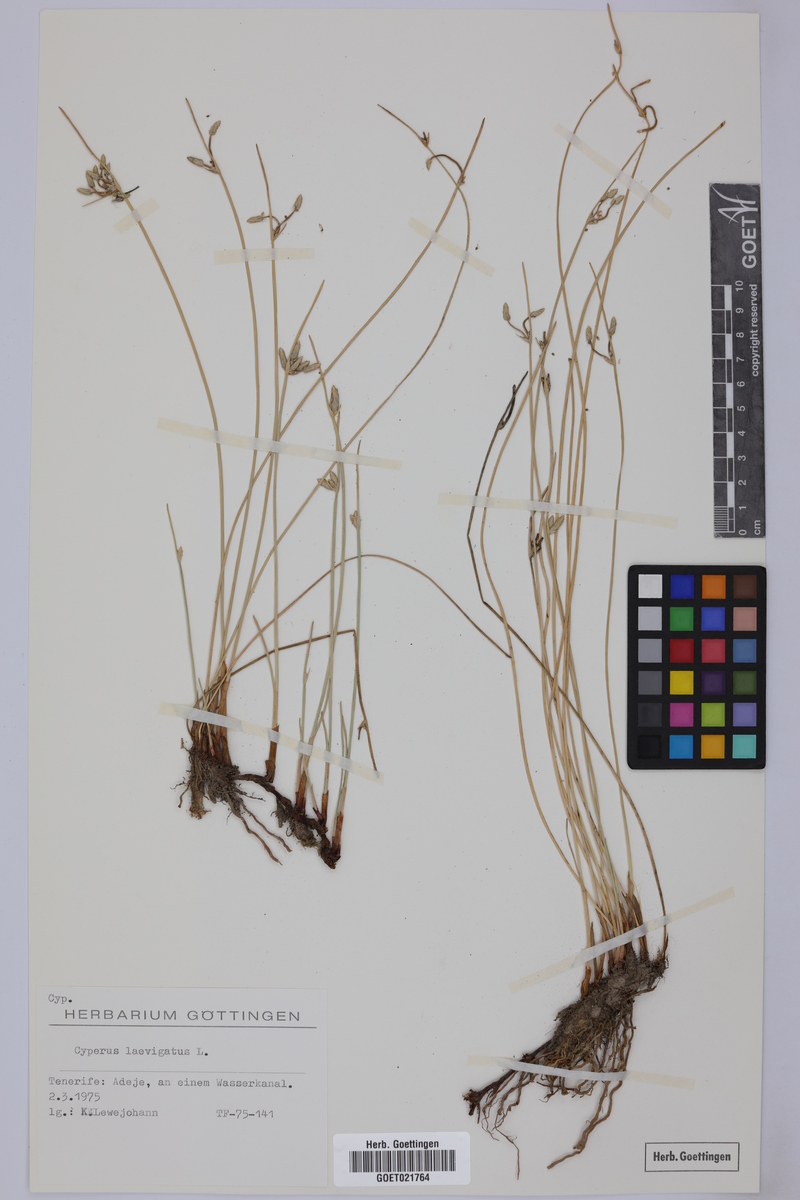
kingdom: Plantae
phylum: Tracheophyta
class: Liliopsida
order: Poales
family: Cyperaceae
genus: Cyperus
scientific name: Cyperus laevigatus
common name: Smooth flat sedge
